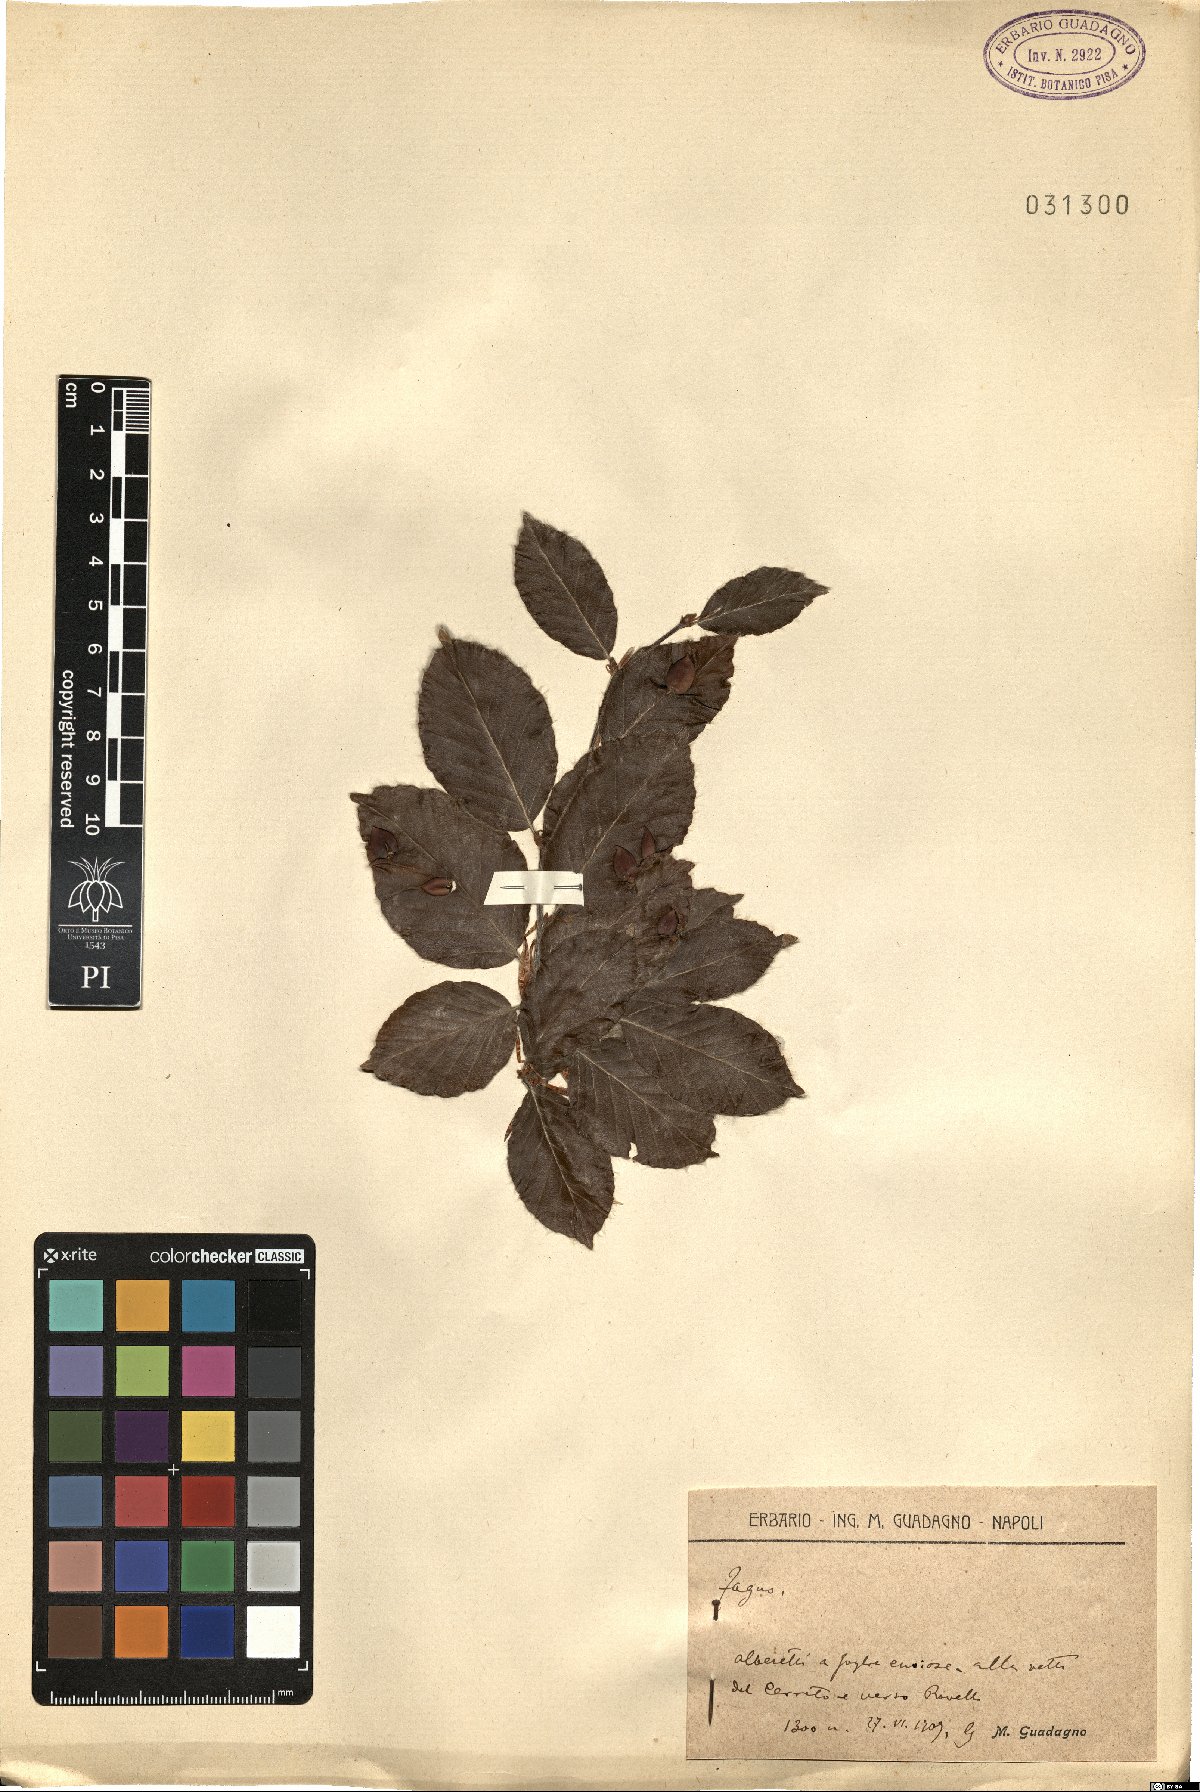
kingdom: Plantae
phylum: Tracheophyta
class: Magnoliopsida
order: Fagales
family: Fagaceae
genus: Fagus
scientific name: Fagus
